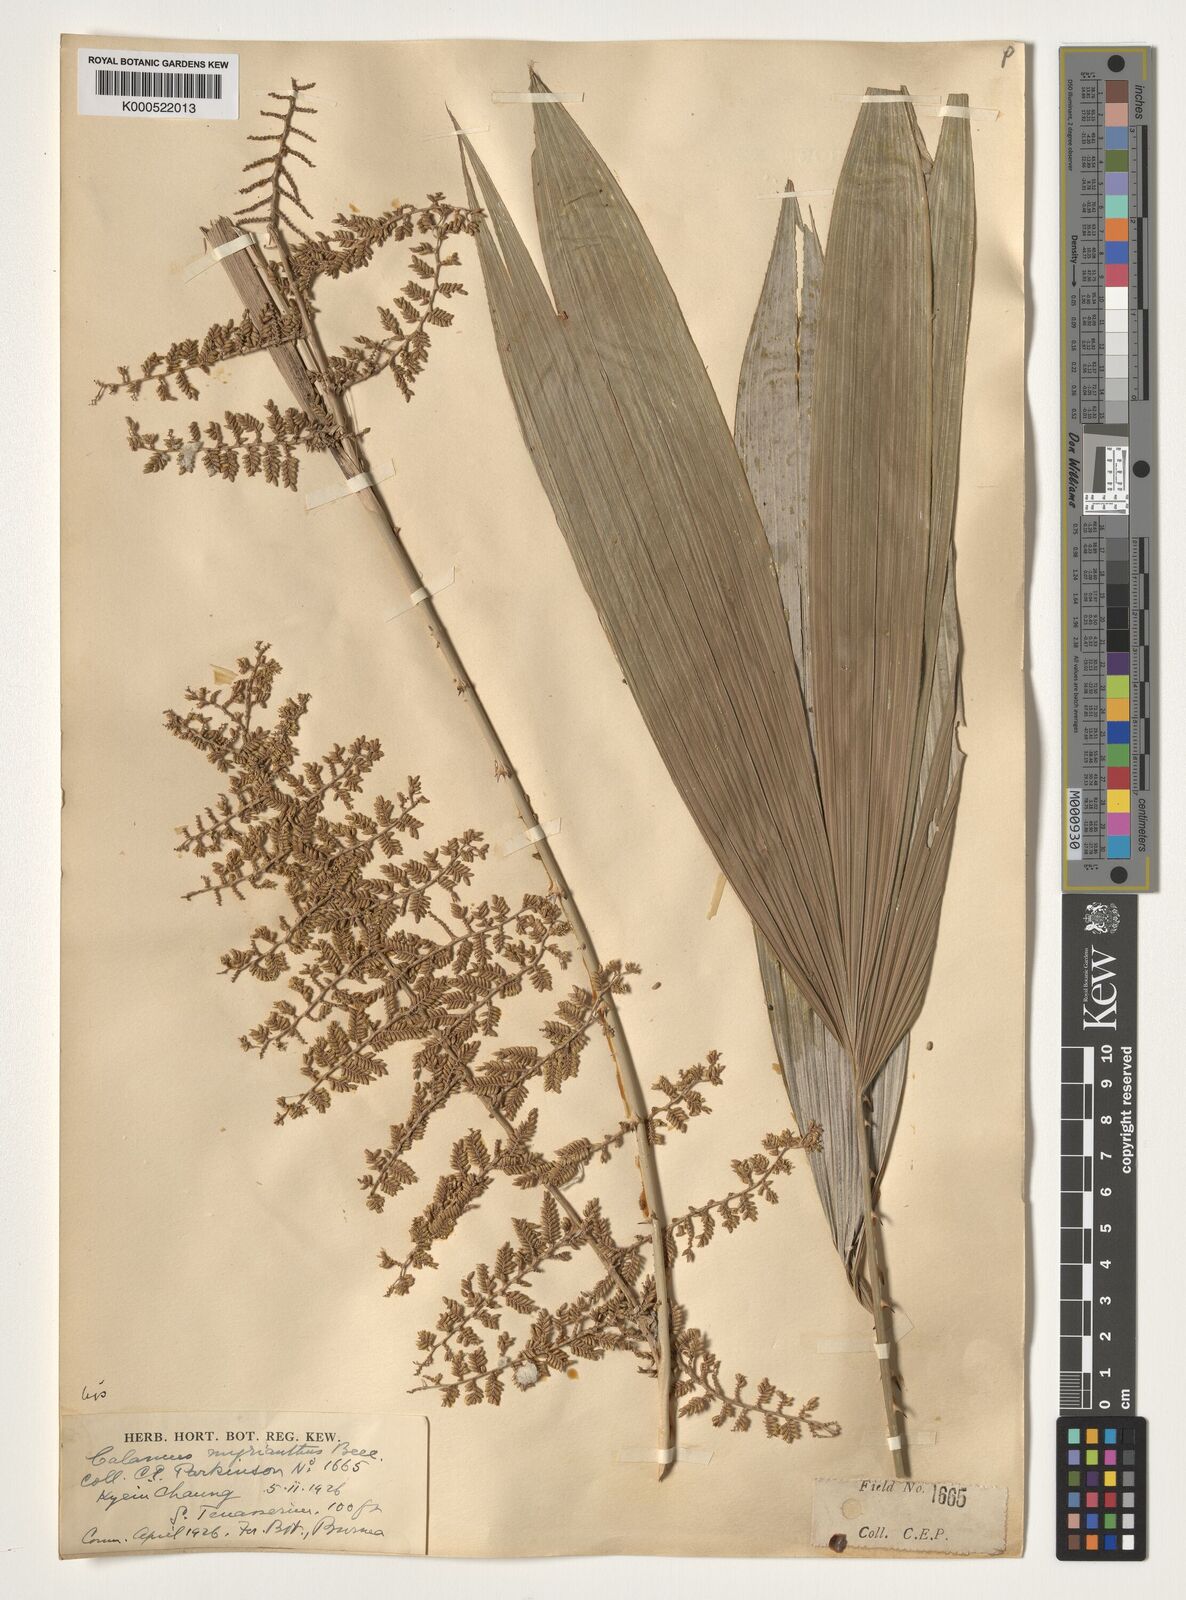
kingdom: Plantae
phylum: Tracheophyta
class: Liliopsida
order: Arecales
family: Arecaceae
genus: Calamus
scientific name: Calamus myrianthus
